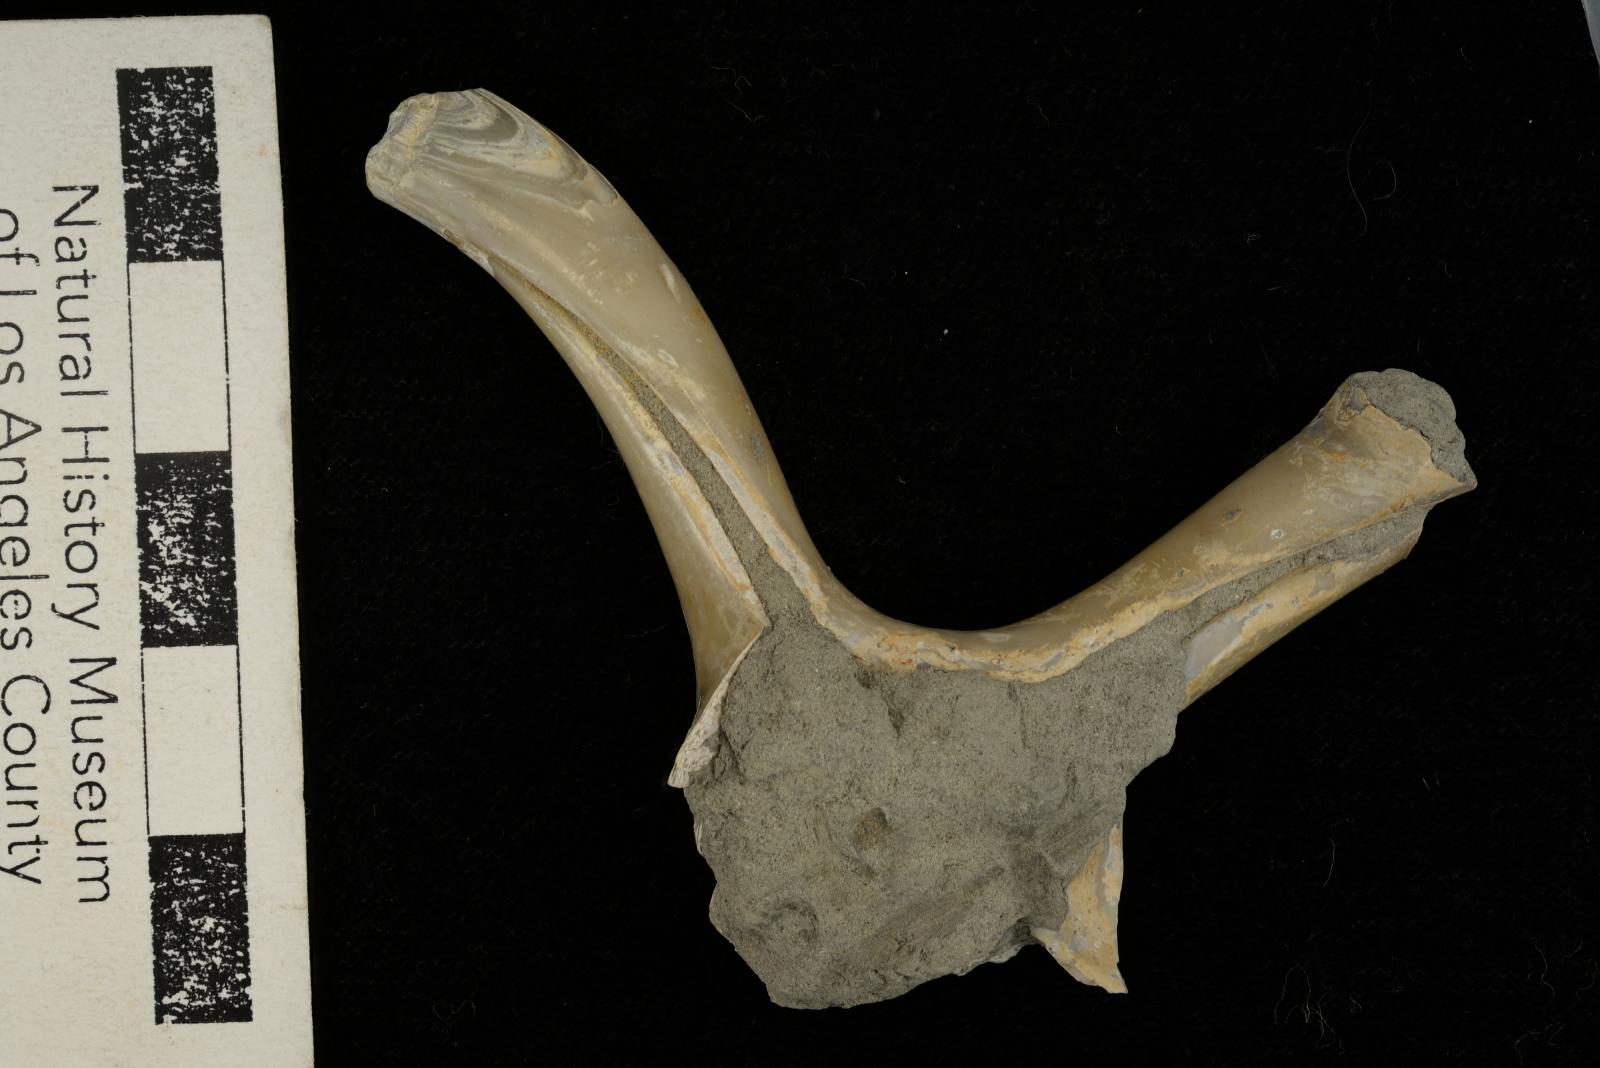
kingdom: Animalia
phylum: Mollusca
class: Gastropoda
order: Littorinimorpha
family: Aporrhaidae
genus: Tessarolax
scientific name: Tessarolax
